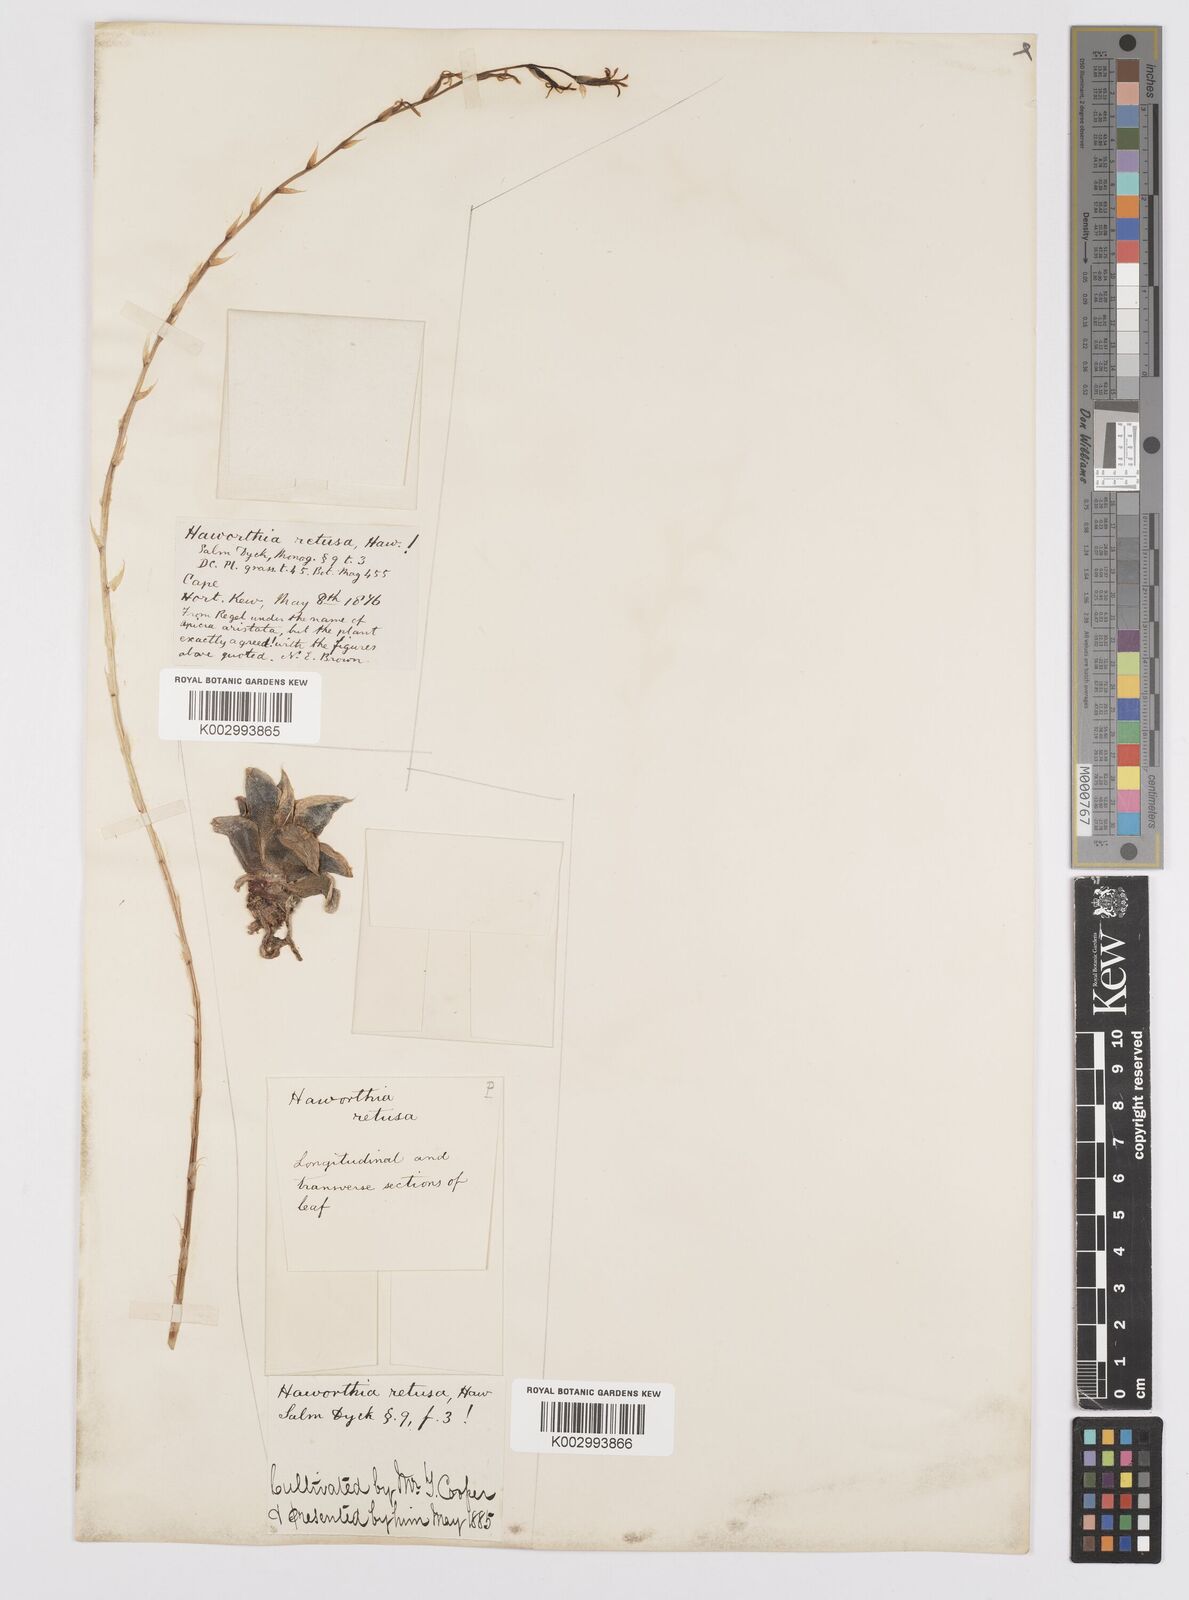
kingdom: Plantae
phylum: Tracheophyta
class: Liliopsida
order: Asparagales
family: Asphodelaceae
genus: Haworthia
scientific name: Haworthia retusa
